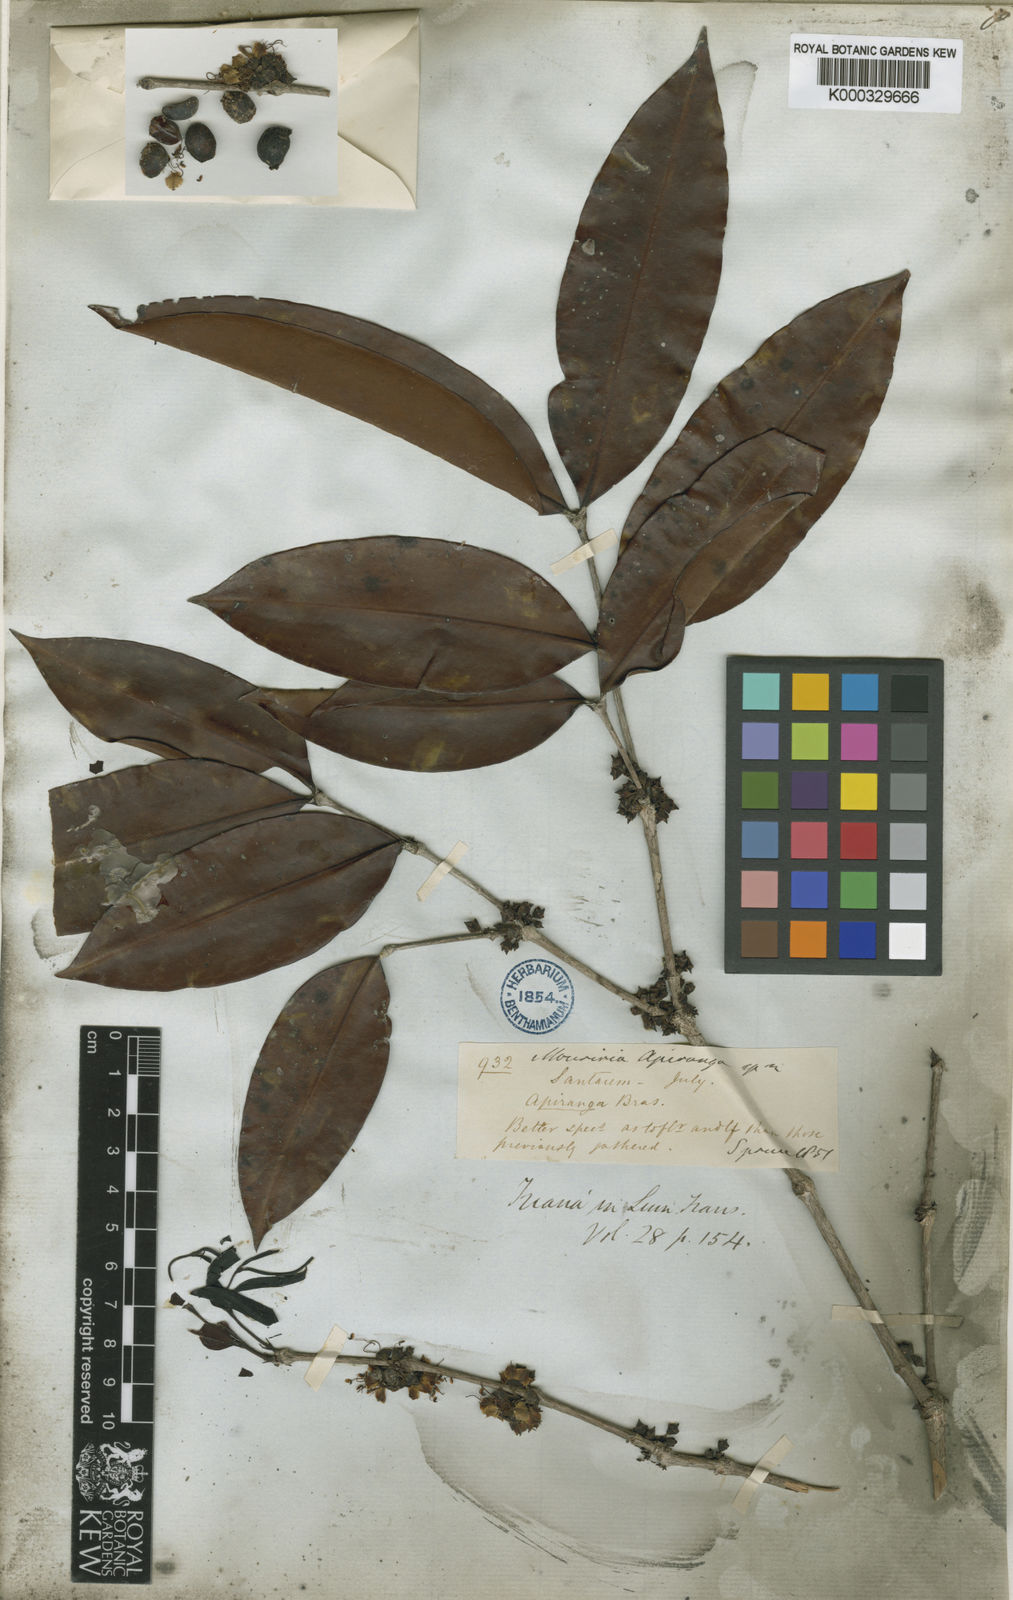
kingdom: Plantae
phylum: Tracheophyta
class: Magnoliopsida
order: Myrtales
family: Melastomataceae
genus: Mouriri
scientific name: Mouriri apiranga
